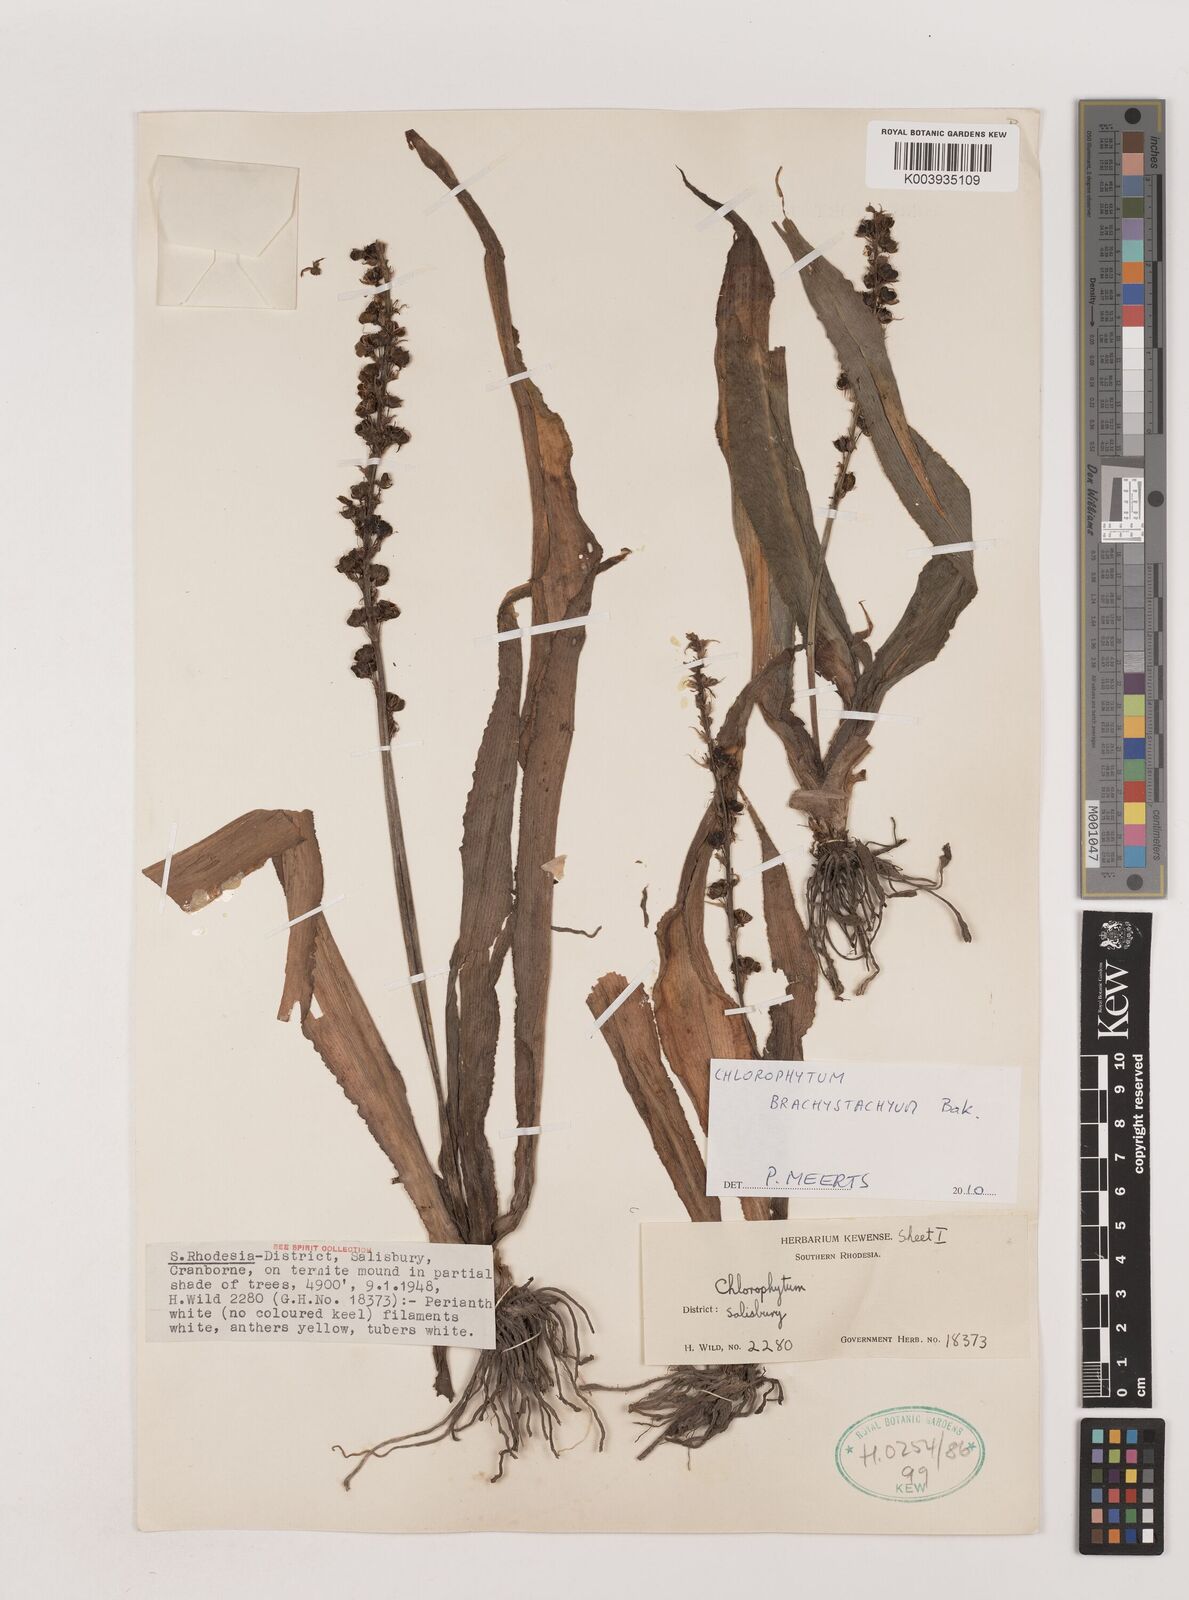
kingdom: Plantae
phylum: Tracheophyta
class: Liliopsida
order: Asparagales
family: Asparagaceae
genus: Chlorophytum
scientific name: Chlorophytum brachystachyum
